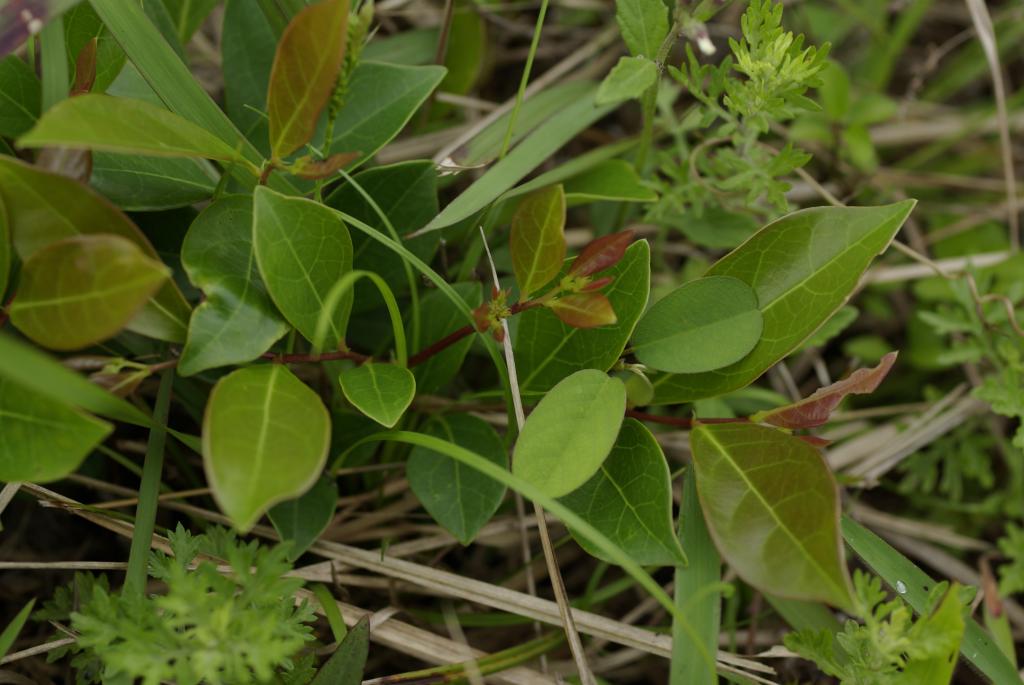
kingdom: Plantae
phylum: Tracheophyta
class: Magnoliopsida
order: Malpighiales
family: Phyllanthaceae
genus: Glochidion
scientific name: Glochidion rubrum
